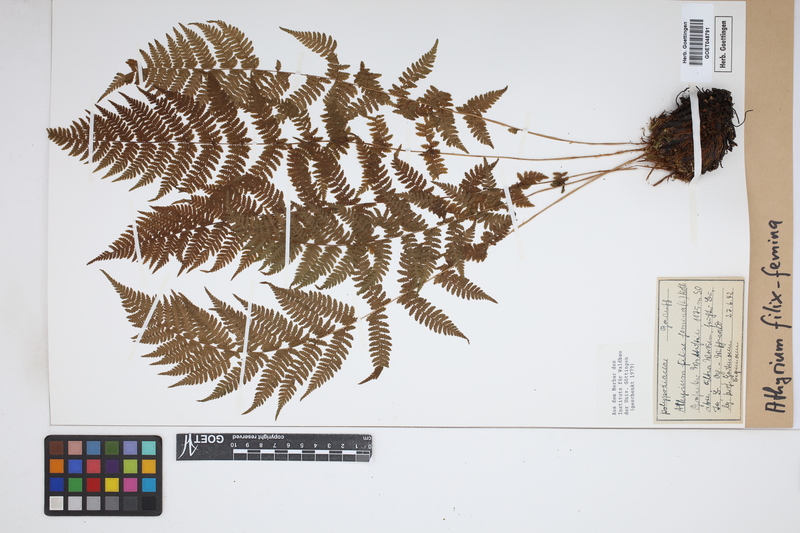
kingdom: Plantae
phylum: Tracheophyta
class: Polypodiopsida
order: Polypodiales
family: Athyriaceae
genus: Athyrium
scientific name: Athyrium filix-femina
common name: Lady fern
